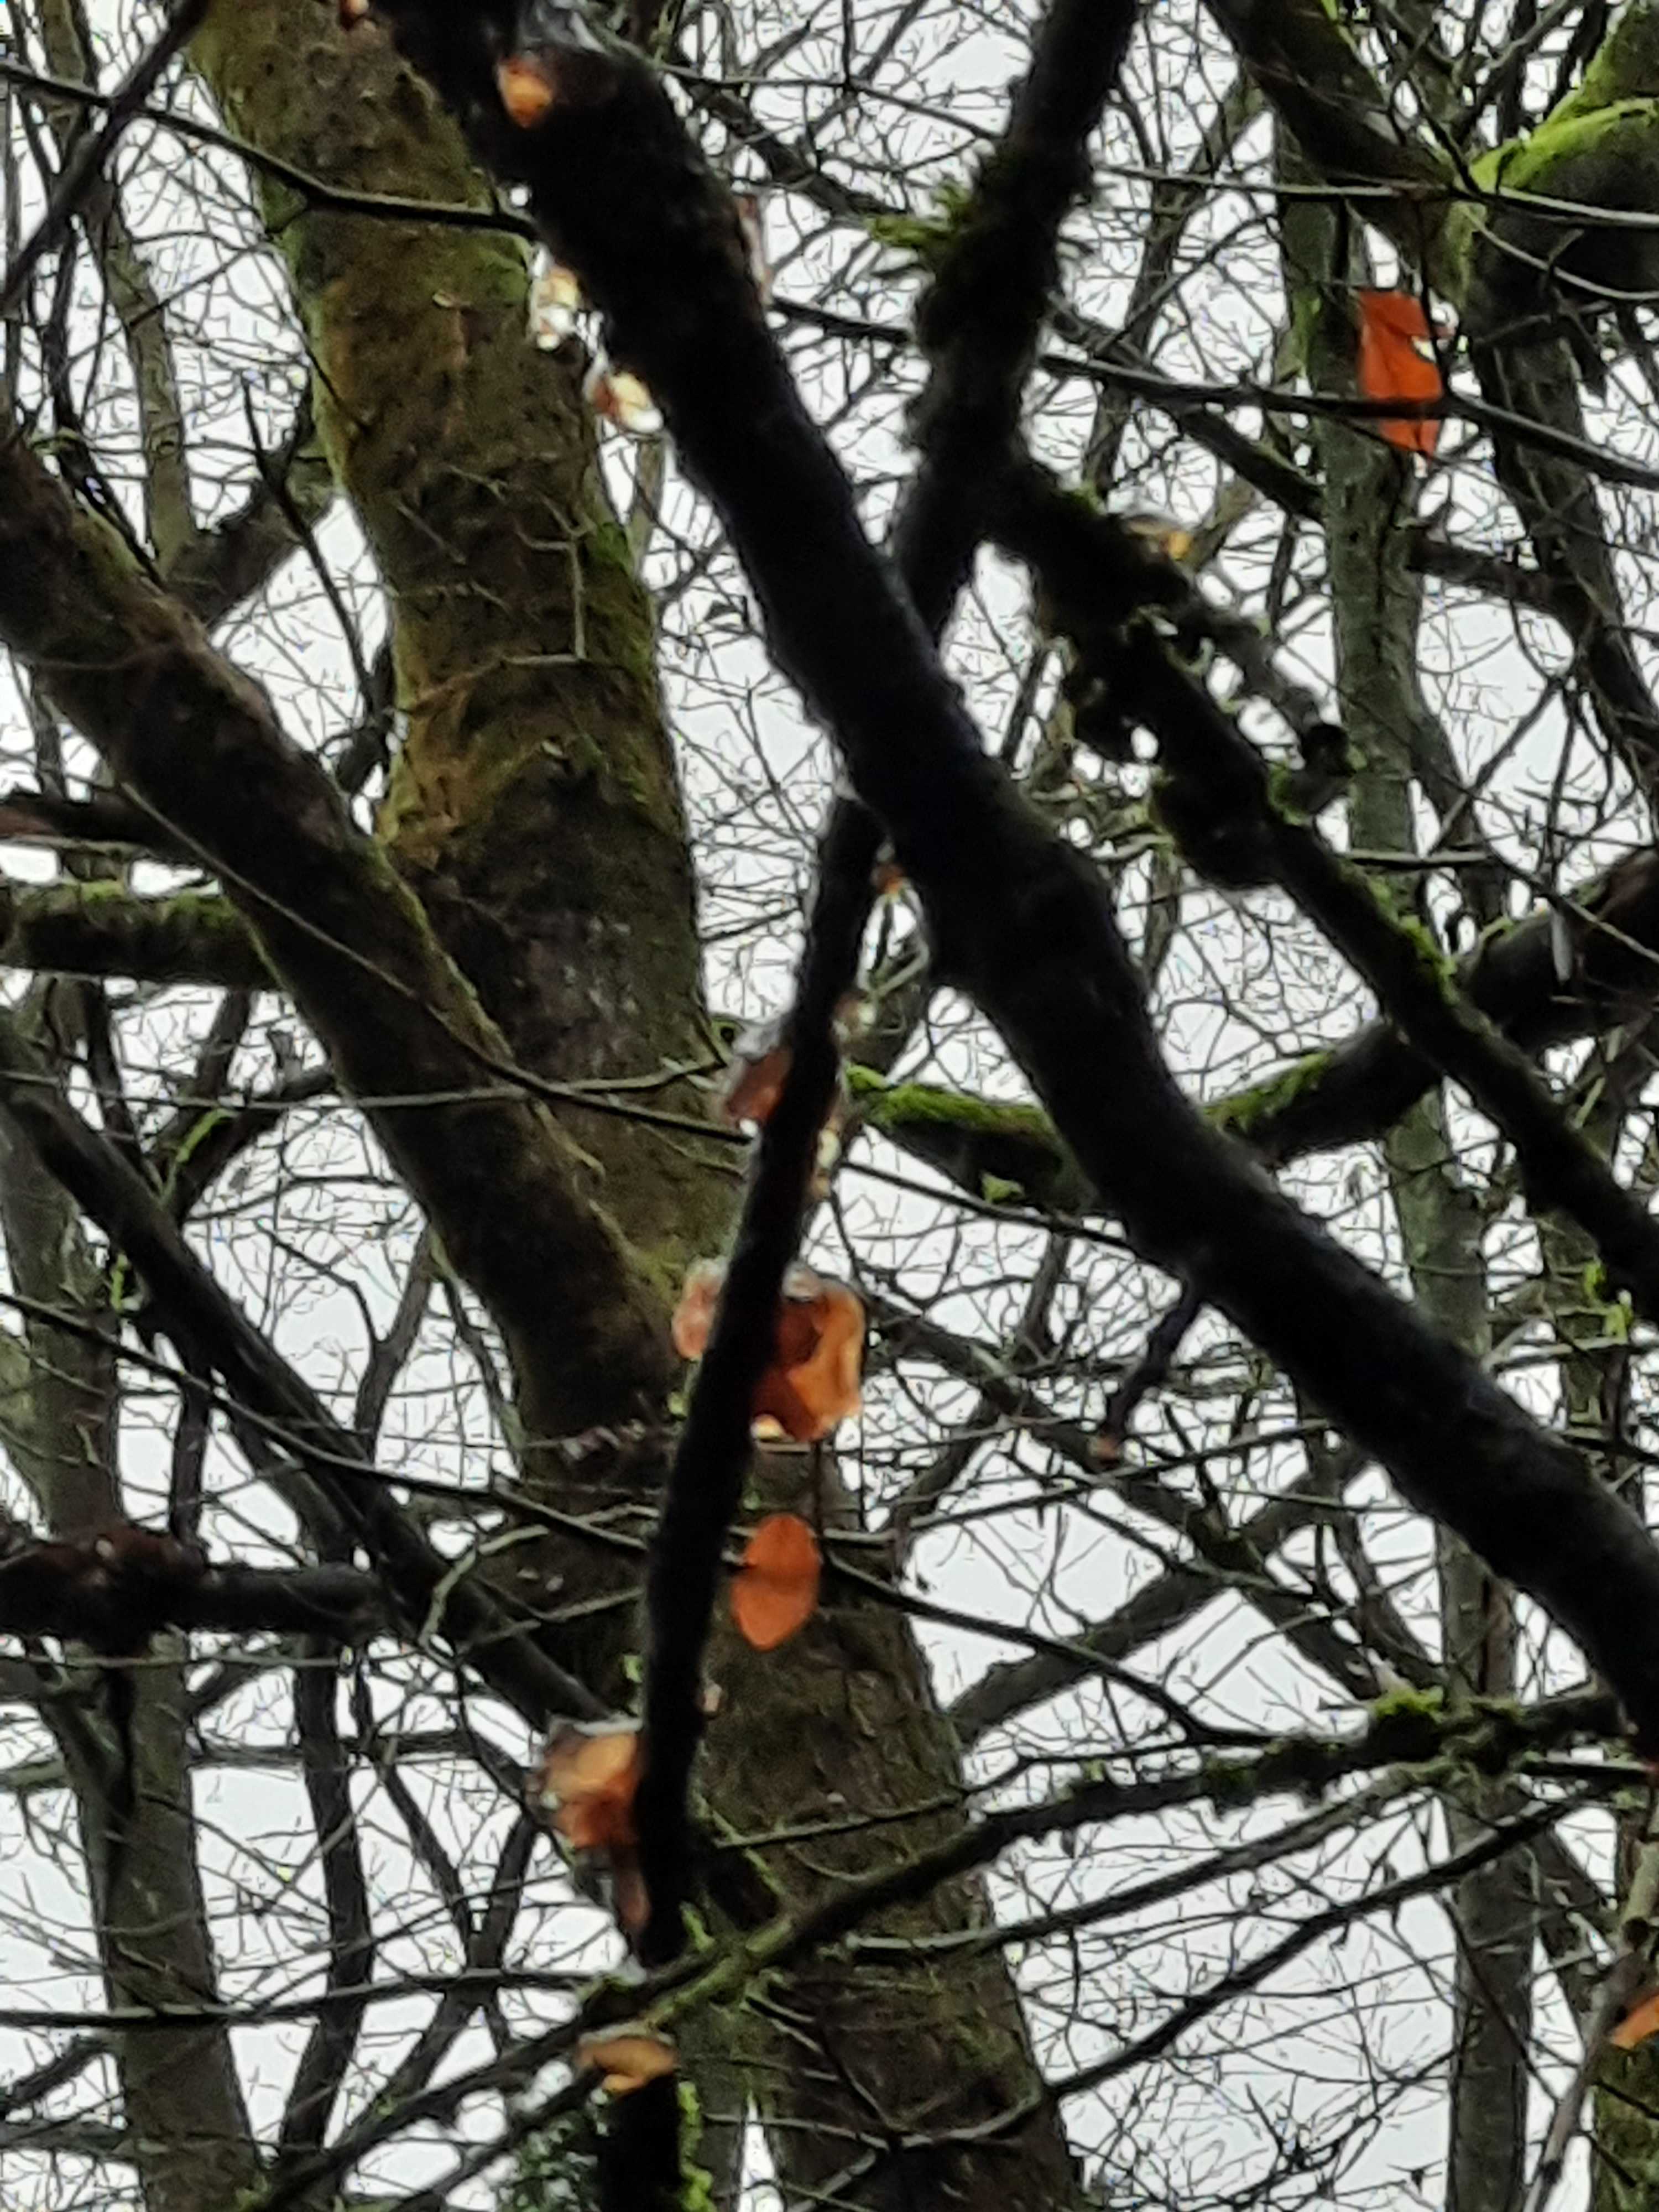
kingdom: Fungi
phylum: Basidiomycota
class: Agaricomycetes
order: Auriculariales
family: Auriculariaceae
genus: Exidia
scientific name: Exidia recisa
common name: pile-bævretop
